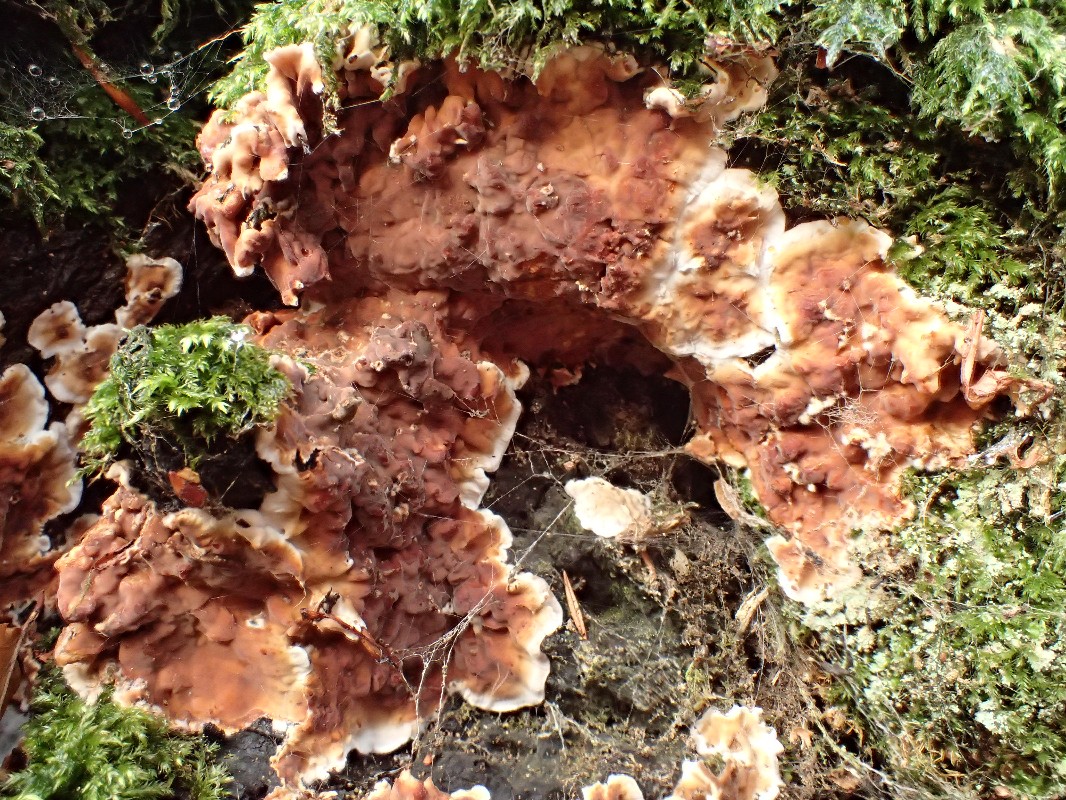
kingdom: Fungi
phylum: Basidiomycota
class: Agaricomycetes
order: Russulales
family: Stereaceae
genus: Stereum
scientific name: Stereum gausapatum
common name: tynd lædersvamp
